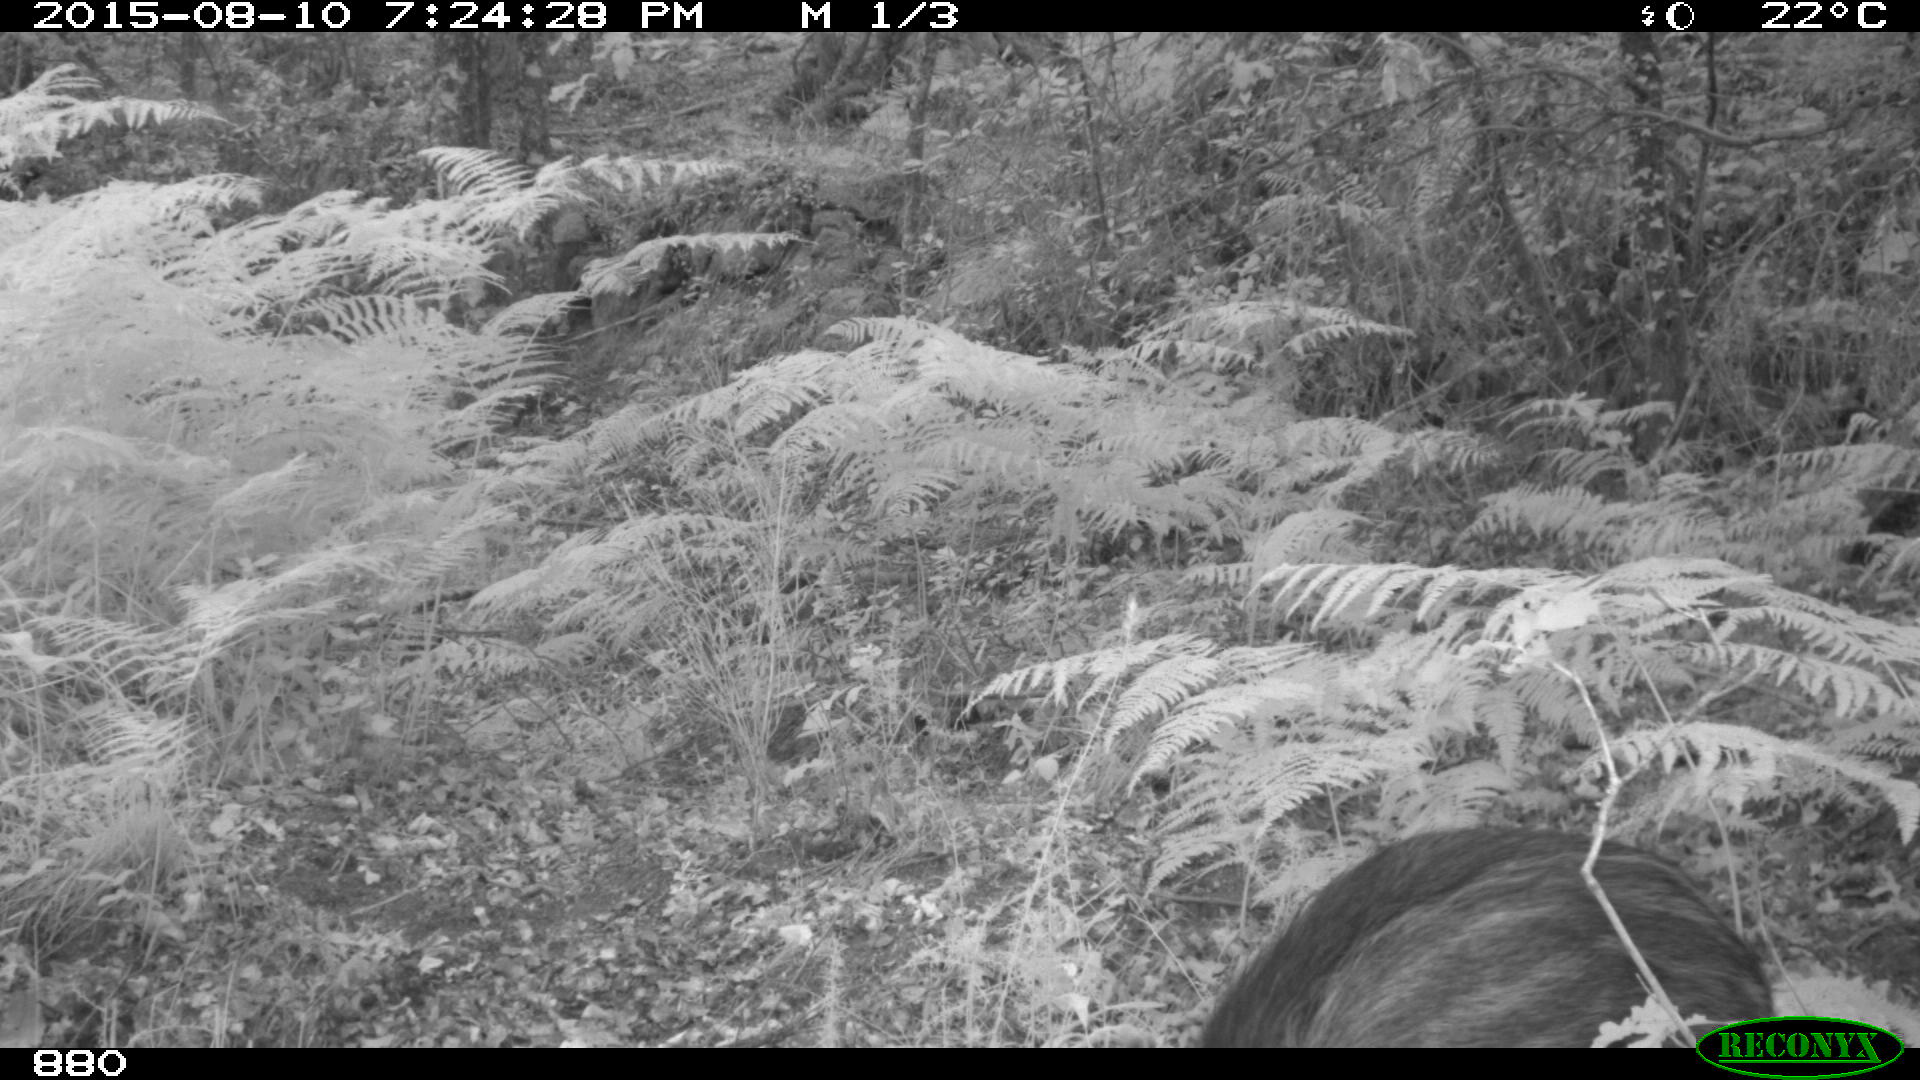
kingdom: Animalia
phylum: Chordata
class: Mammalia
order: Artiodactyla
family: Suidae
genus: Sus
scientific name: Sus scrofa
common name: Wild boar
